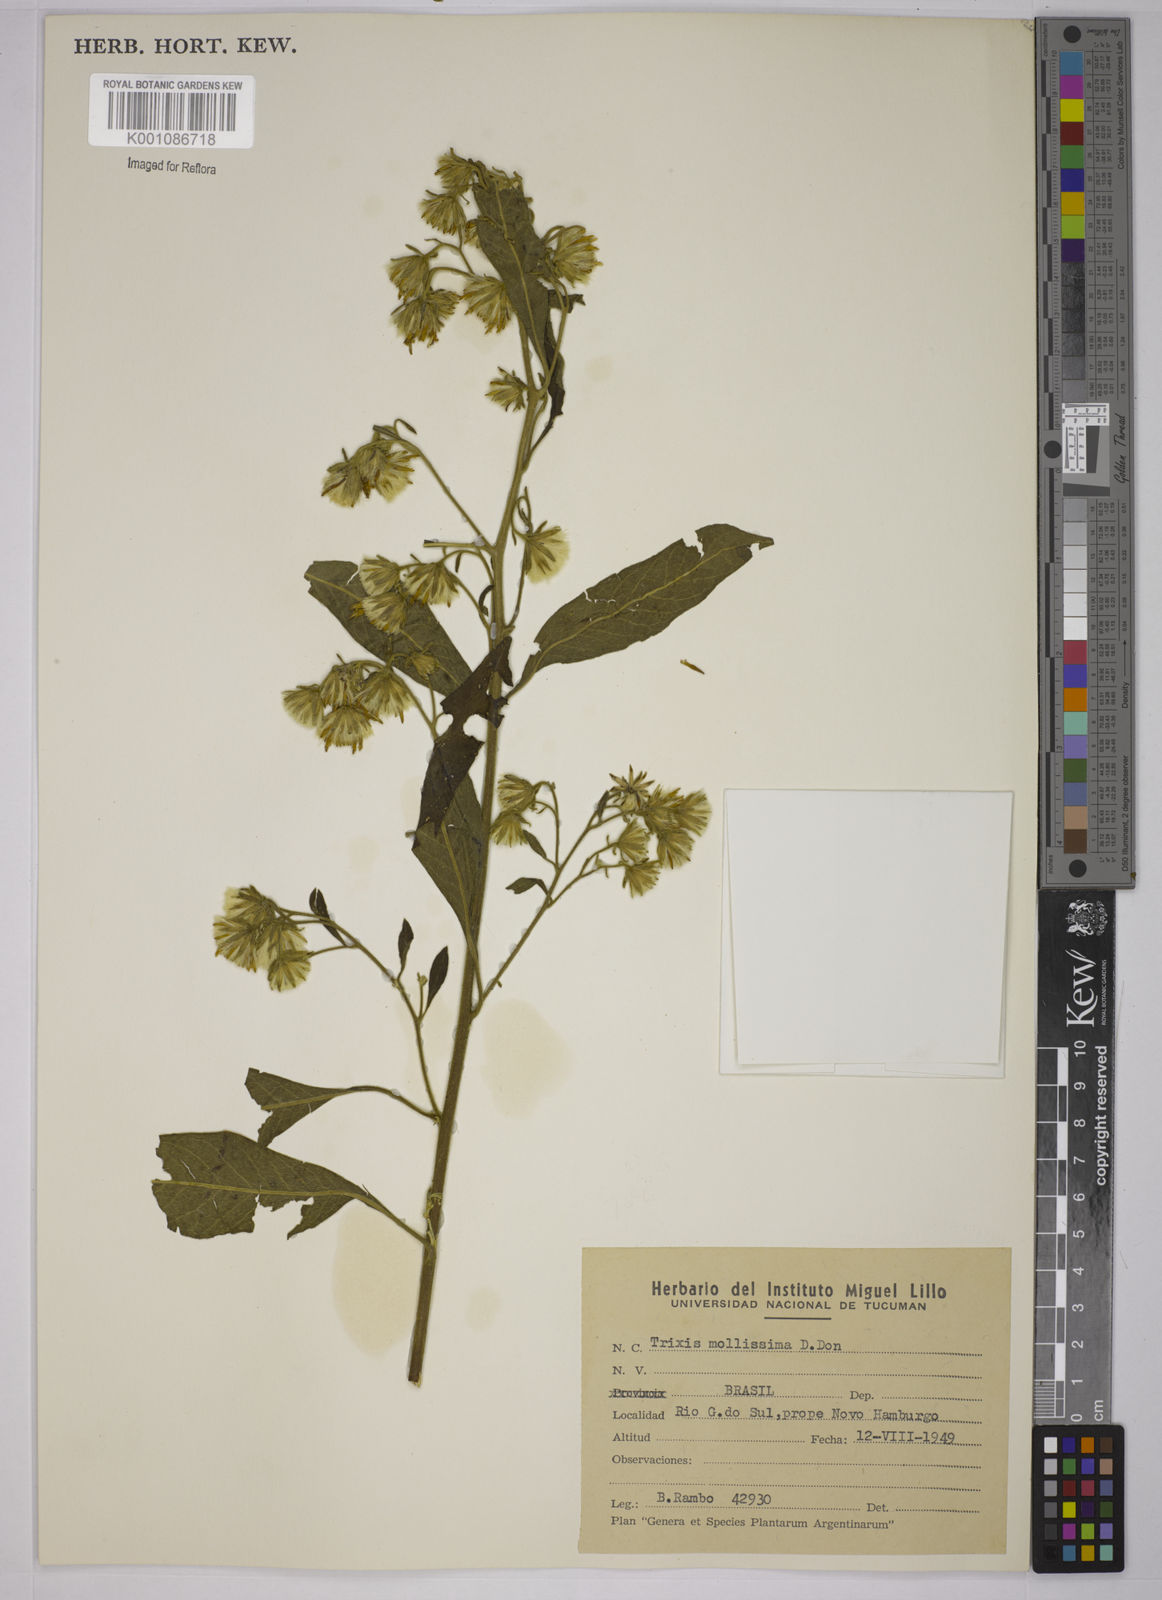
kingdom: Plantae
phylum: Tracheophyta
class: Magnoliopsida
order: Asterales
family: Asteraceae
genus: Trixis
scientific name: Trixis praestans
